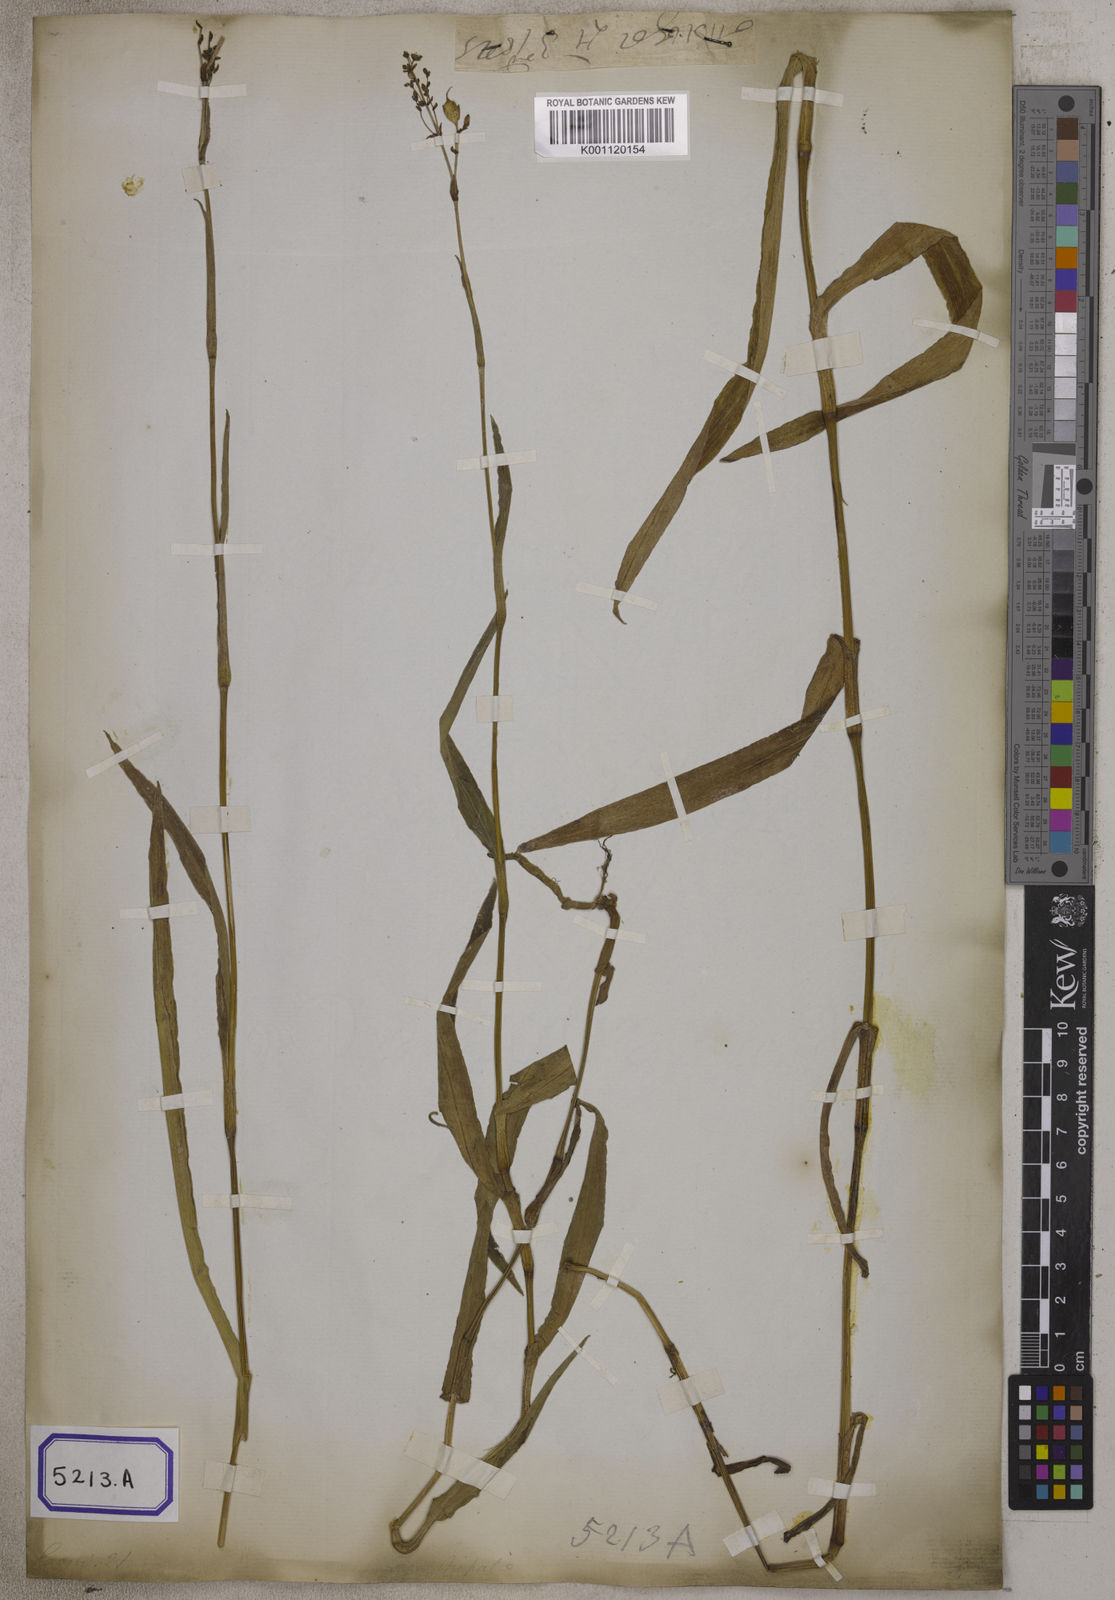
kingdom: Plantae
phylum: Tracheophyta
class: Liliopsida
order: Commelinales
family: Commelinaceae
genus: Aneilema
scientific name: Aneilema
